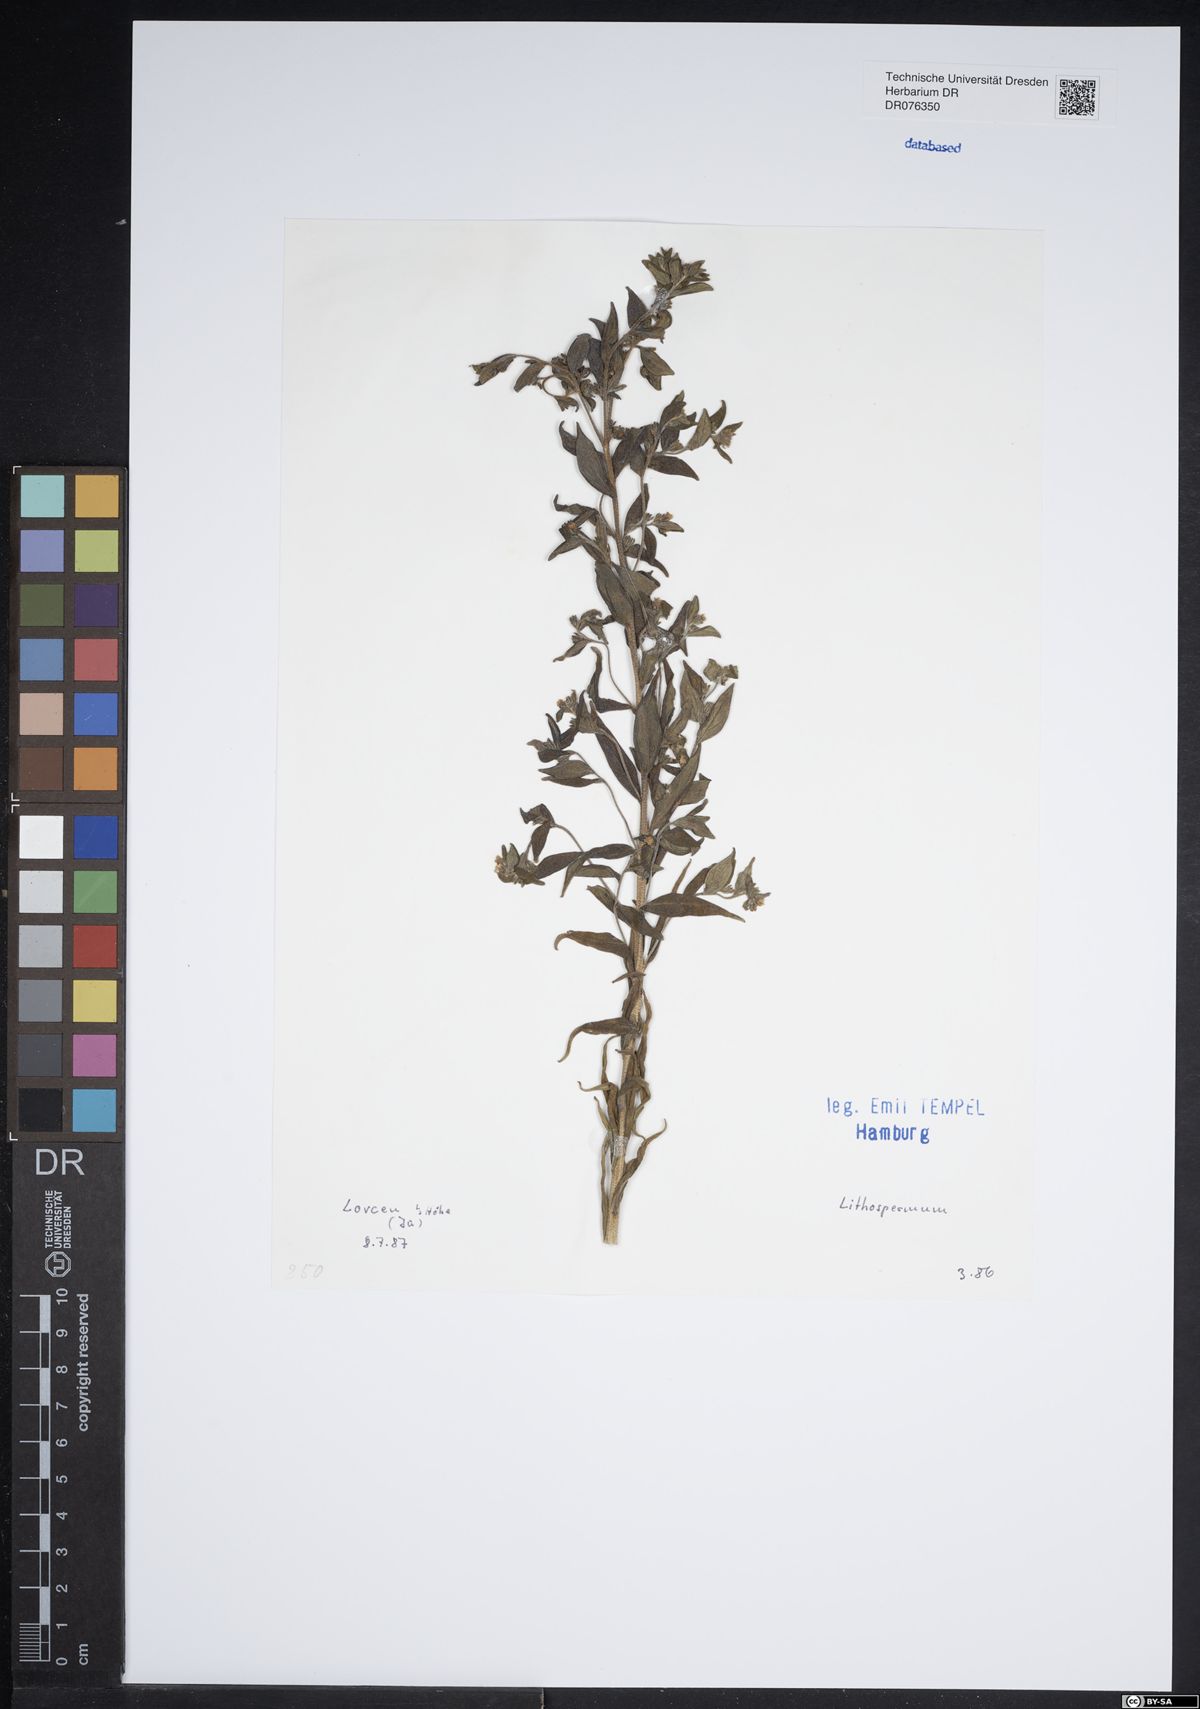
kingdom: Plantae
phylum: Tracheophyta
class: Magnoliopsida
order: Boraginales
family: Boraginaceae
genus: Lithospermum
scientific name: Lithospermum
